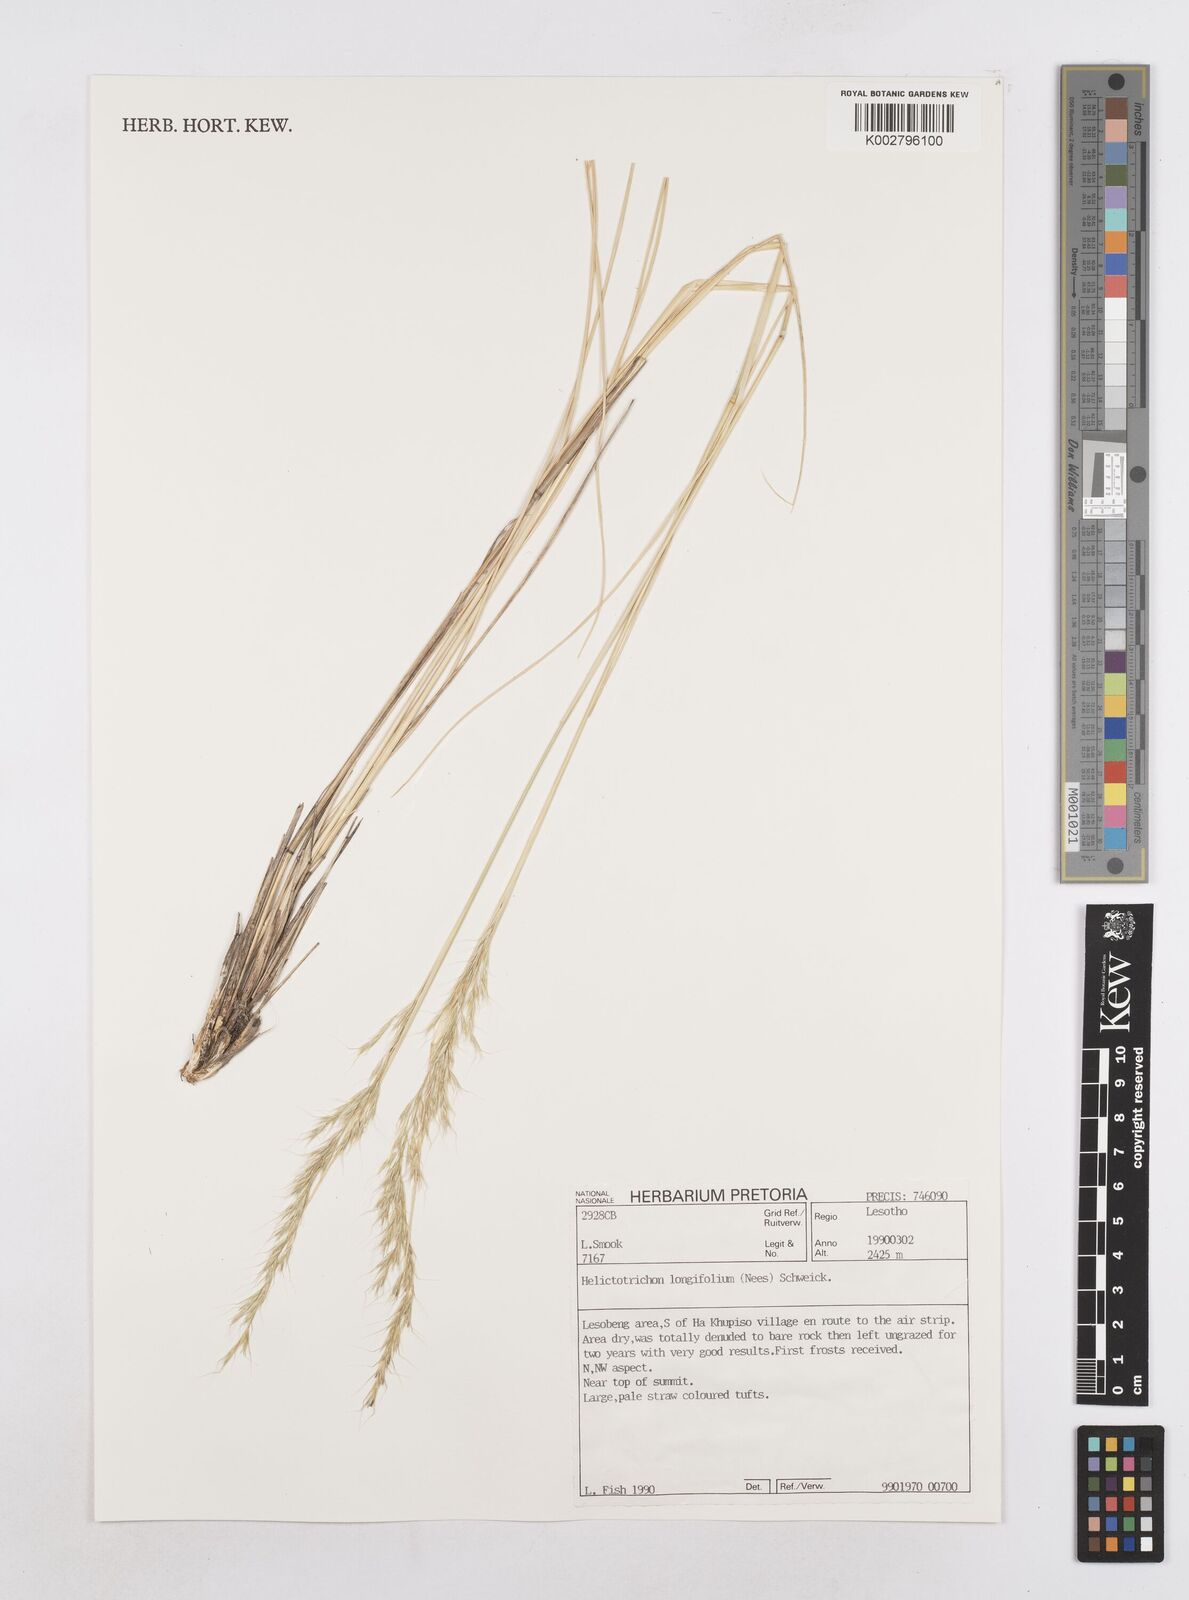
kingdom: Plantae
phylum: Tracheophyta
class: Liliopsida
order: Poales
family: Poaceae
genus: Trisetopsis
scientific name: Trisetopsis longifolia
